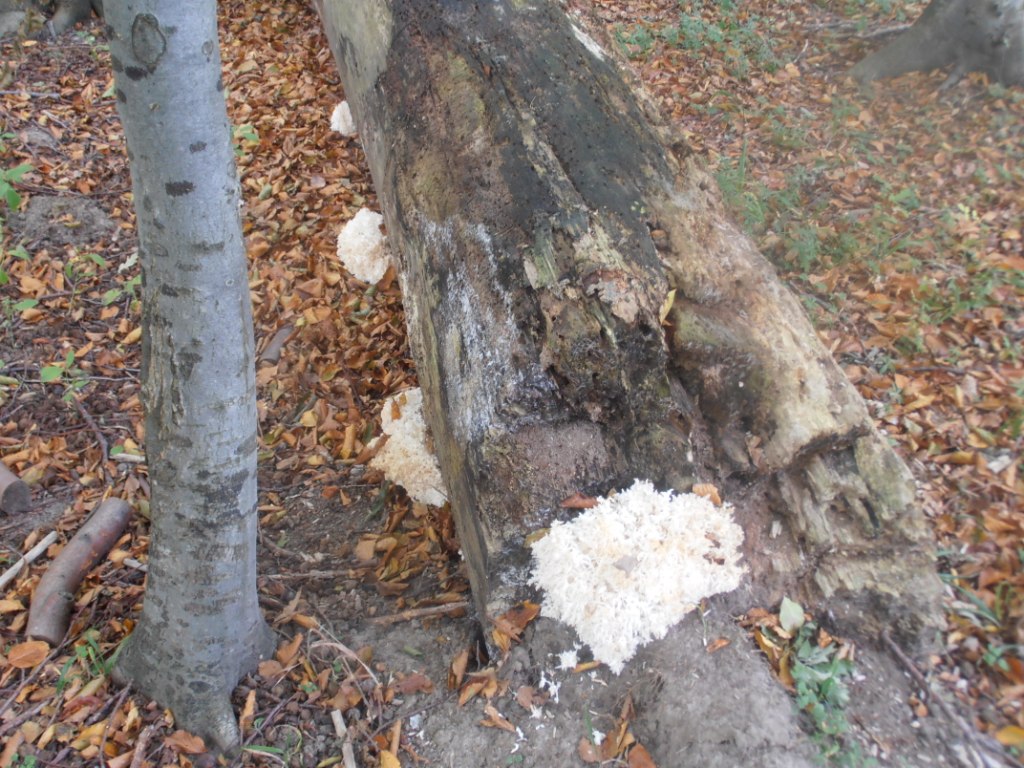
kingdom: Fungi
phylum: Basidiomycota
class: Agaricomycetes
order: Russulales
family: Hericiaceae
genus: Hericium
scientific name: Hericium coralloides
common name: koralpigsvamp
